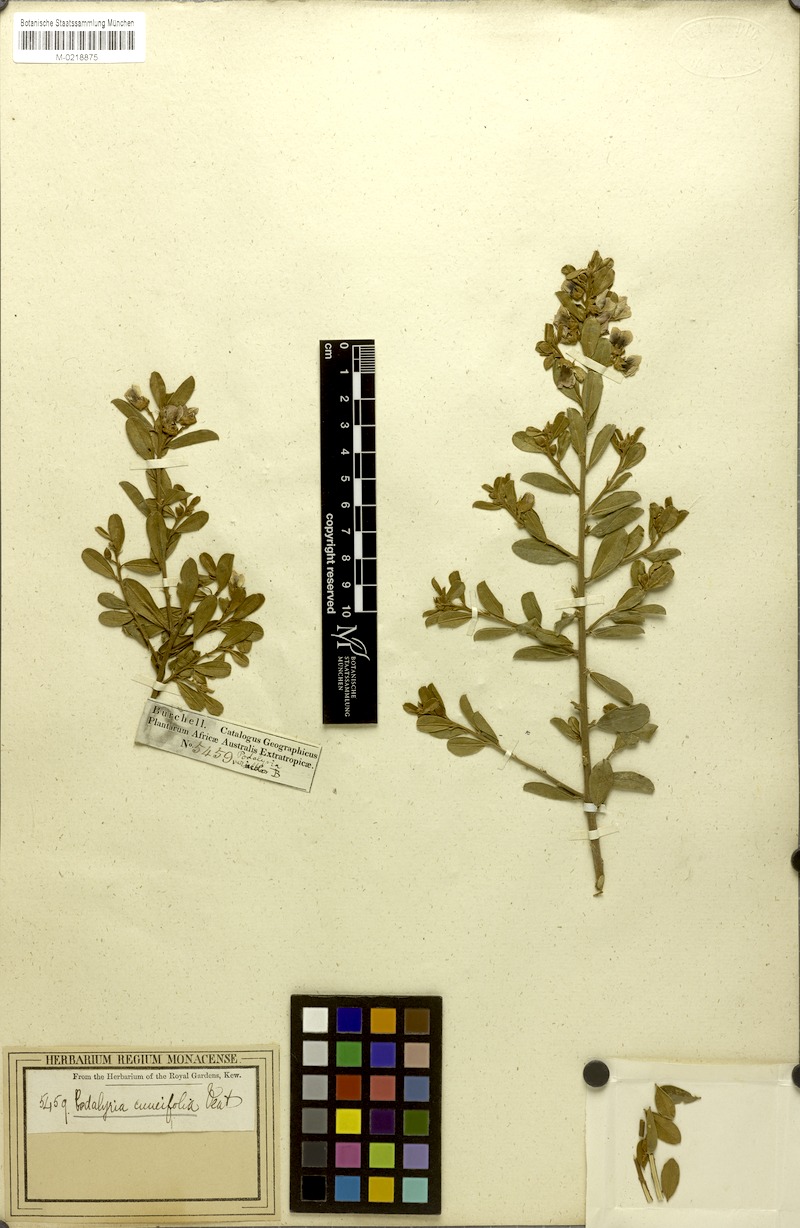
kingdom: Plantae
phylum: Tracheophyta
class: Magnoliopsida
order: Fabales
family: Fabaceae
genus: Podalyria
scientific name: Podalyria myrtillifolia
